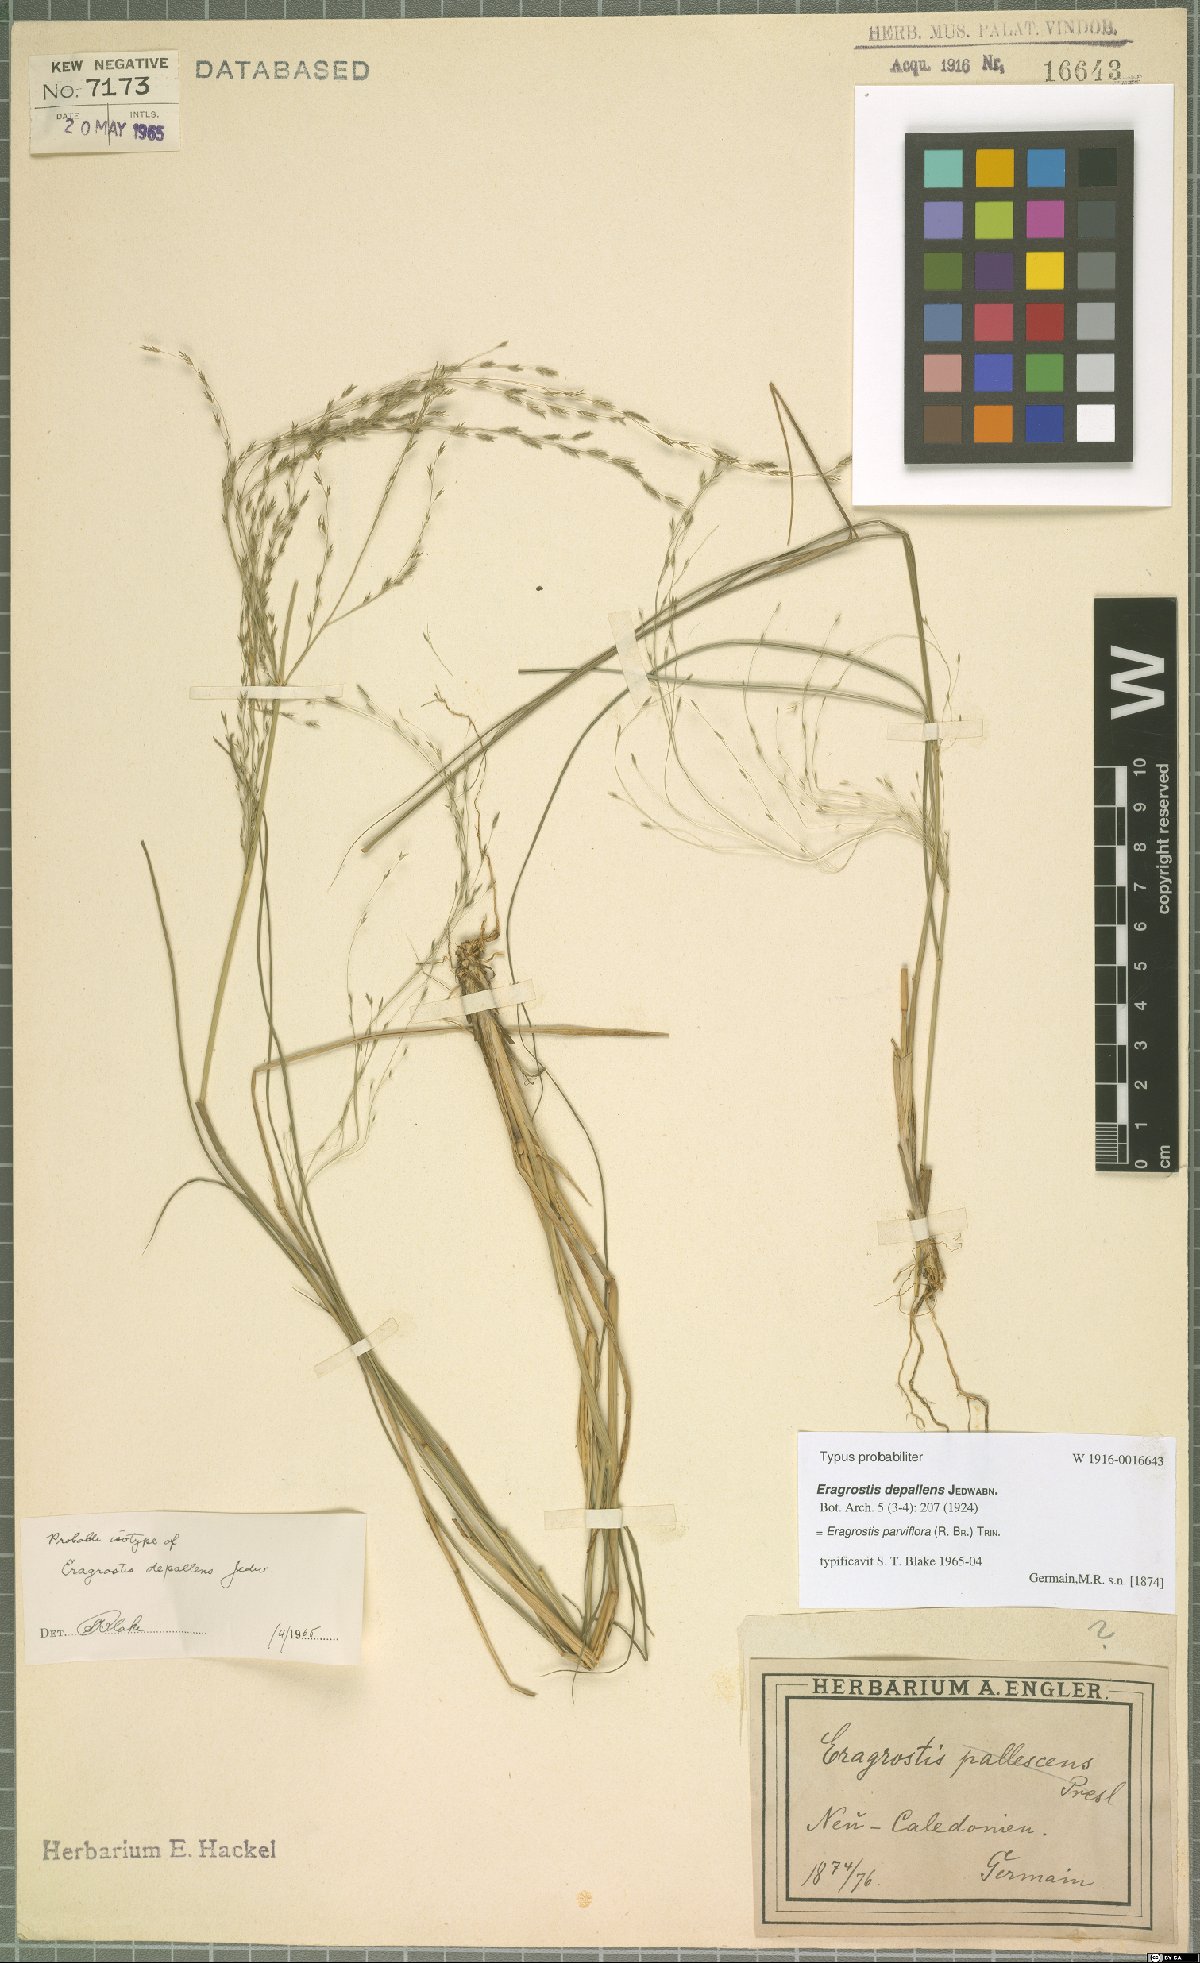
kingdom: Plantae
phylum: Tracheophyta
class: Liliopsida
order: Poales
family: Poaceae
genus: Eragrostis
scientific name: Eragrostis parviflora
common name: Weeping love-grass
